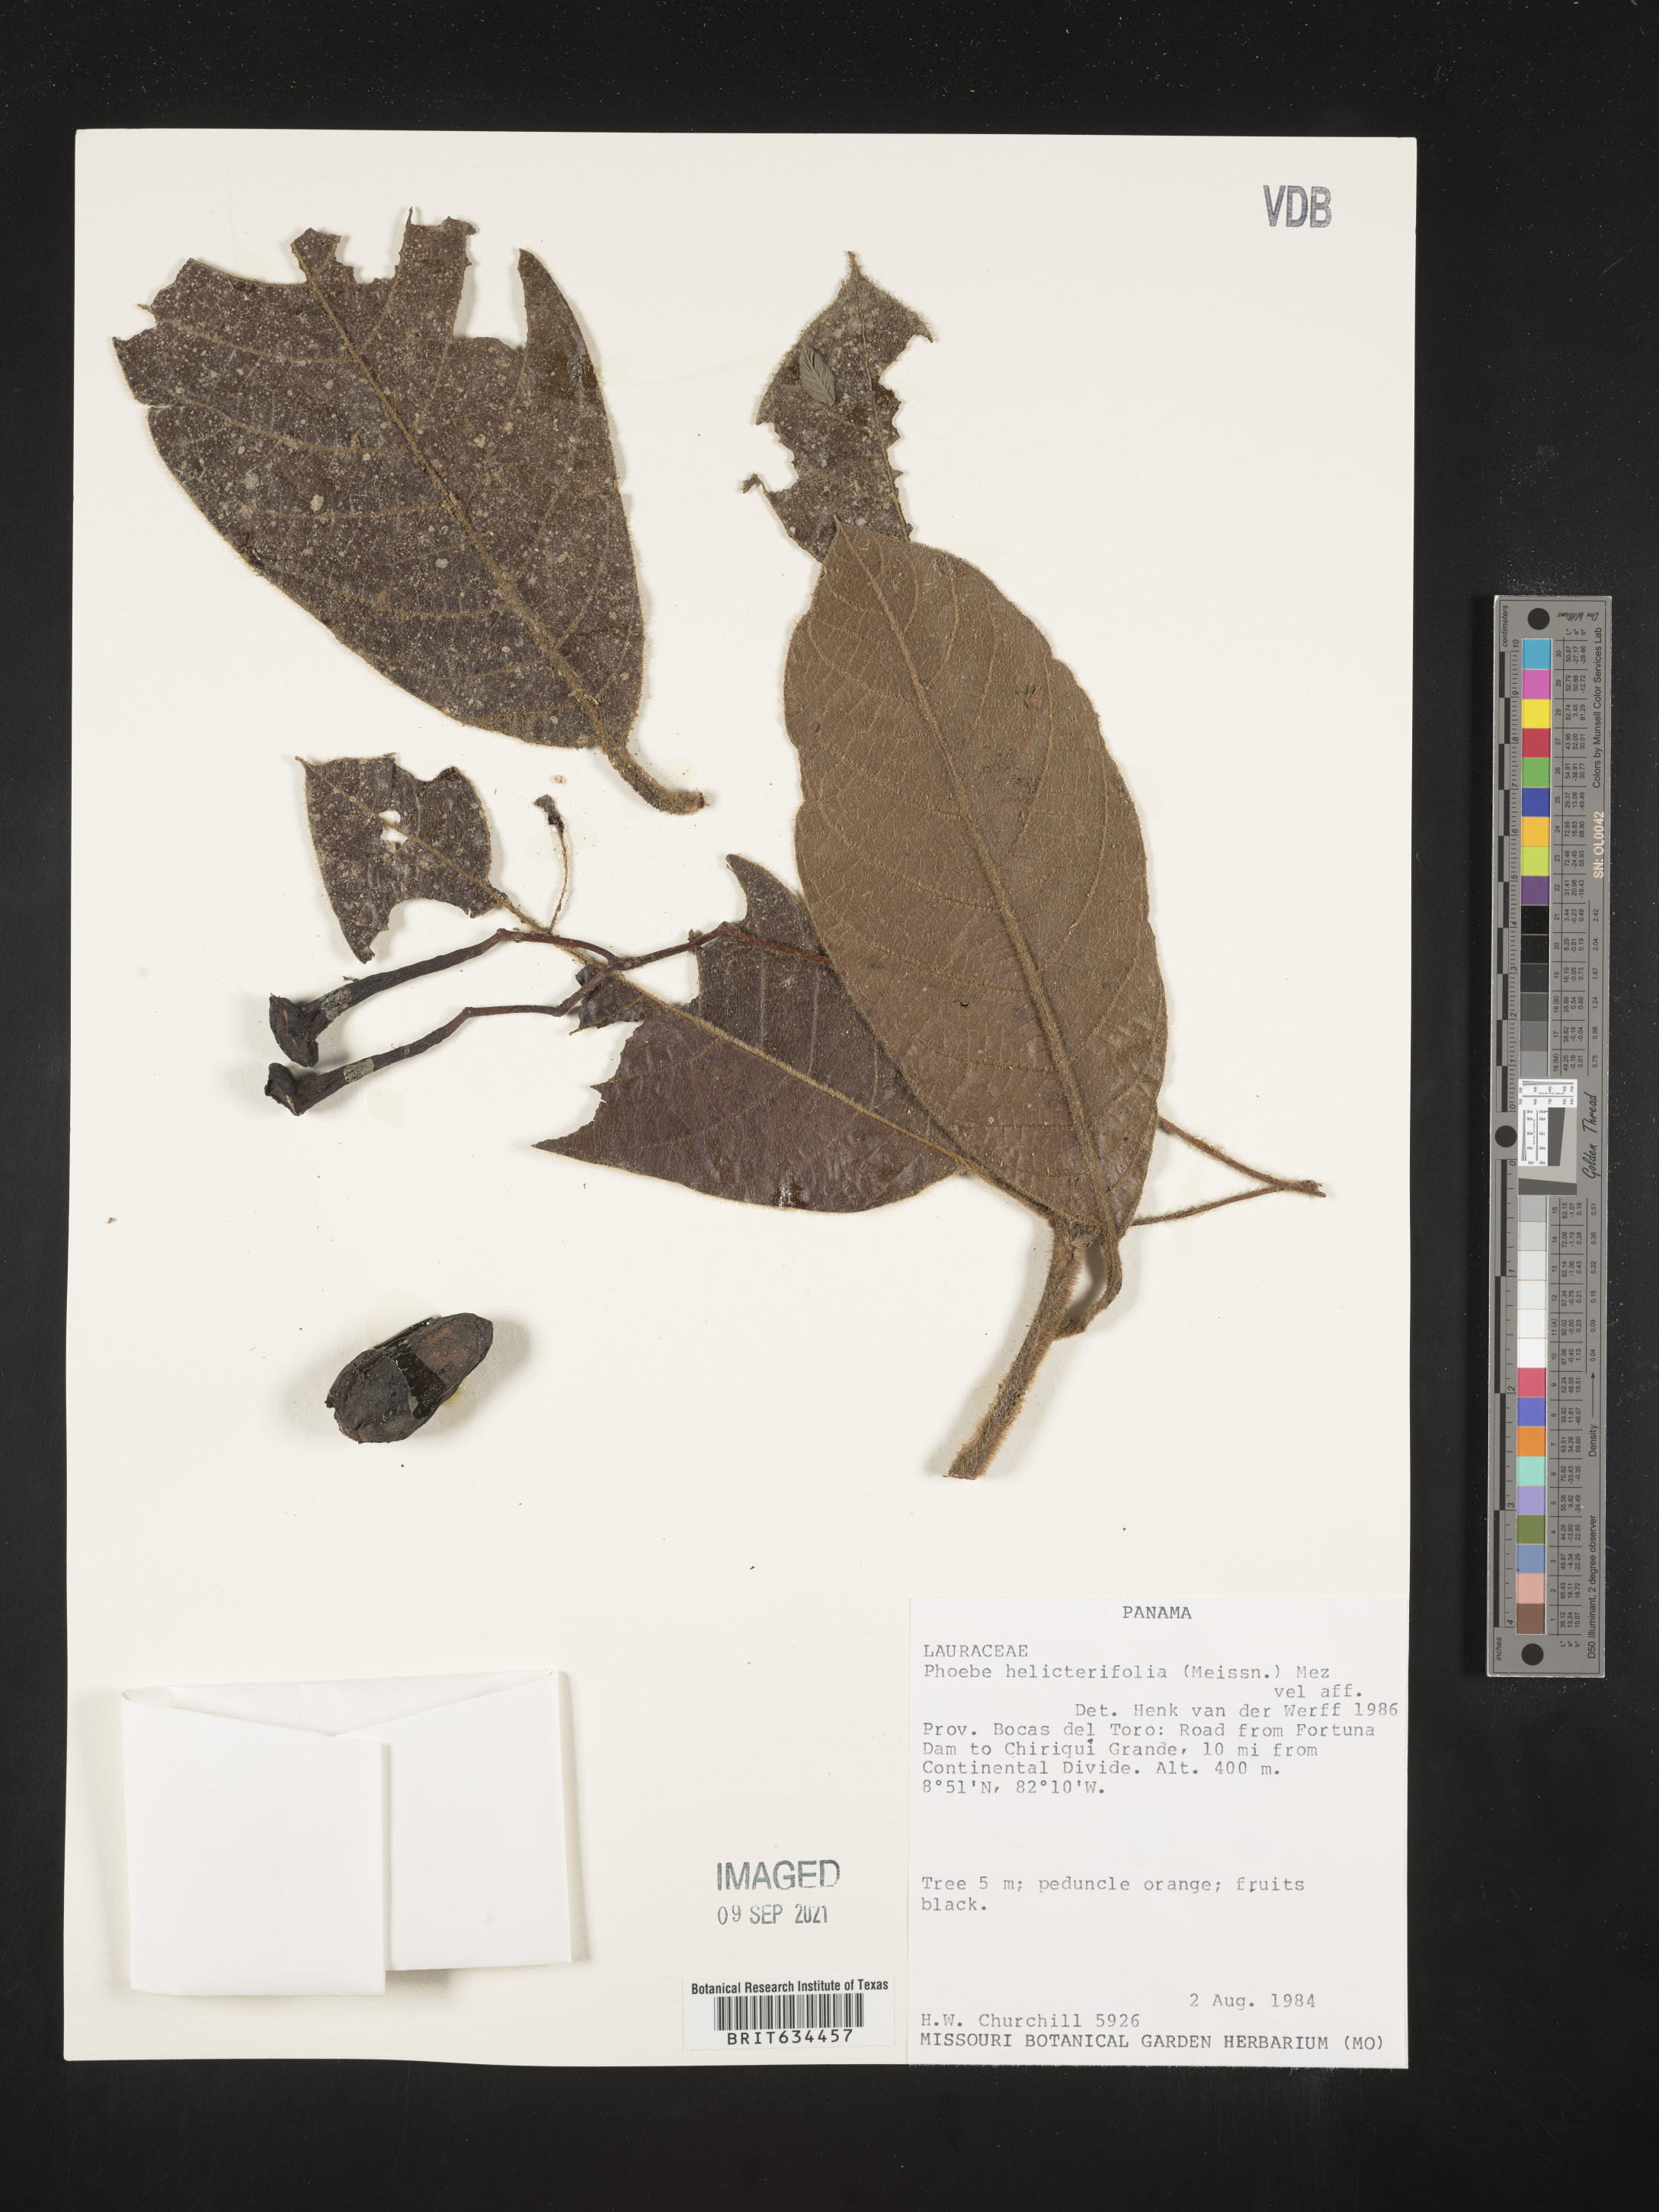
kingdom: Plantae
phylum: Tracheophyta
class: Magnoliopsida
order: Laurales
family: Lauraceae
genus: Phoebe
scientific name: Phoebe
